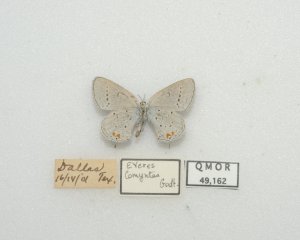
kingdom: Animalia
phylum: Arthropoda
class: Insecta
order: Lepidoptera
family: Lycaenidae
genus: Elkalyce
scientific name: Elkalyce comyntas
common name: Eastern Tailed-Blue
